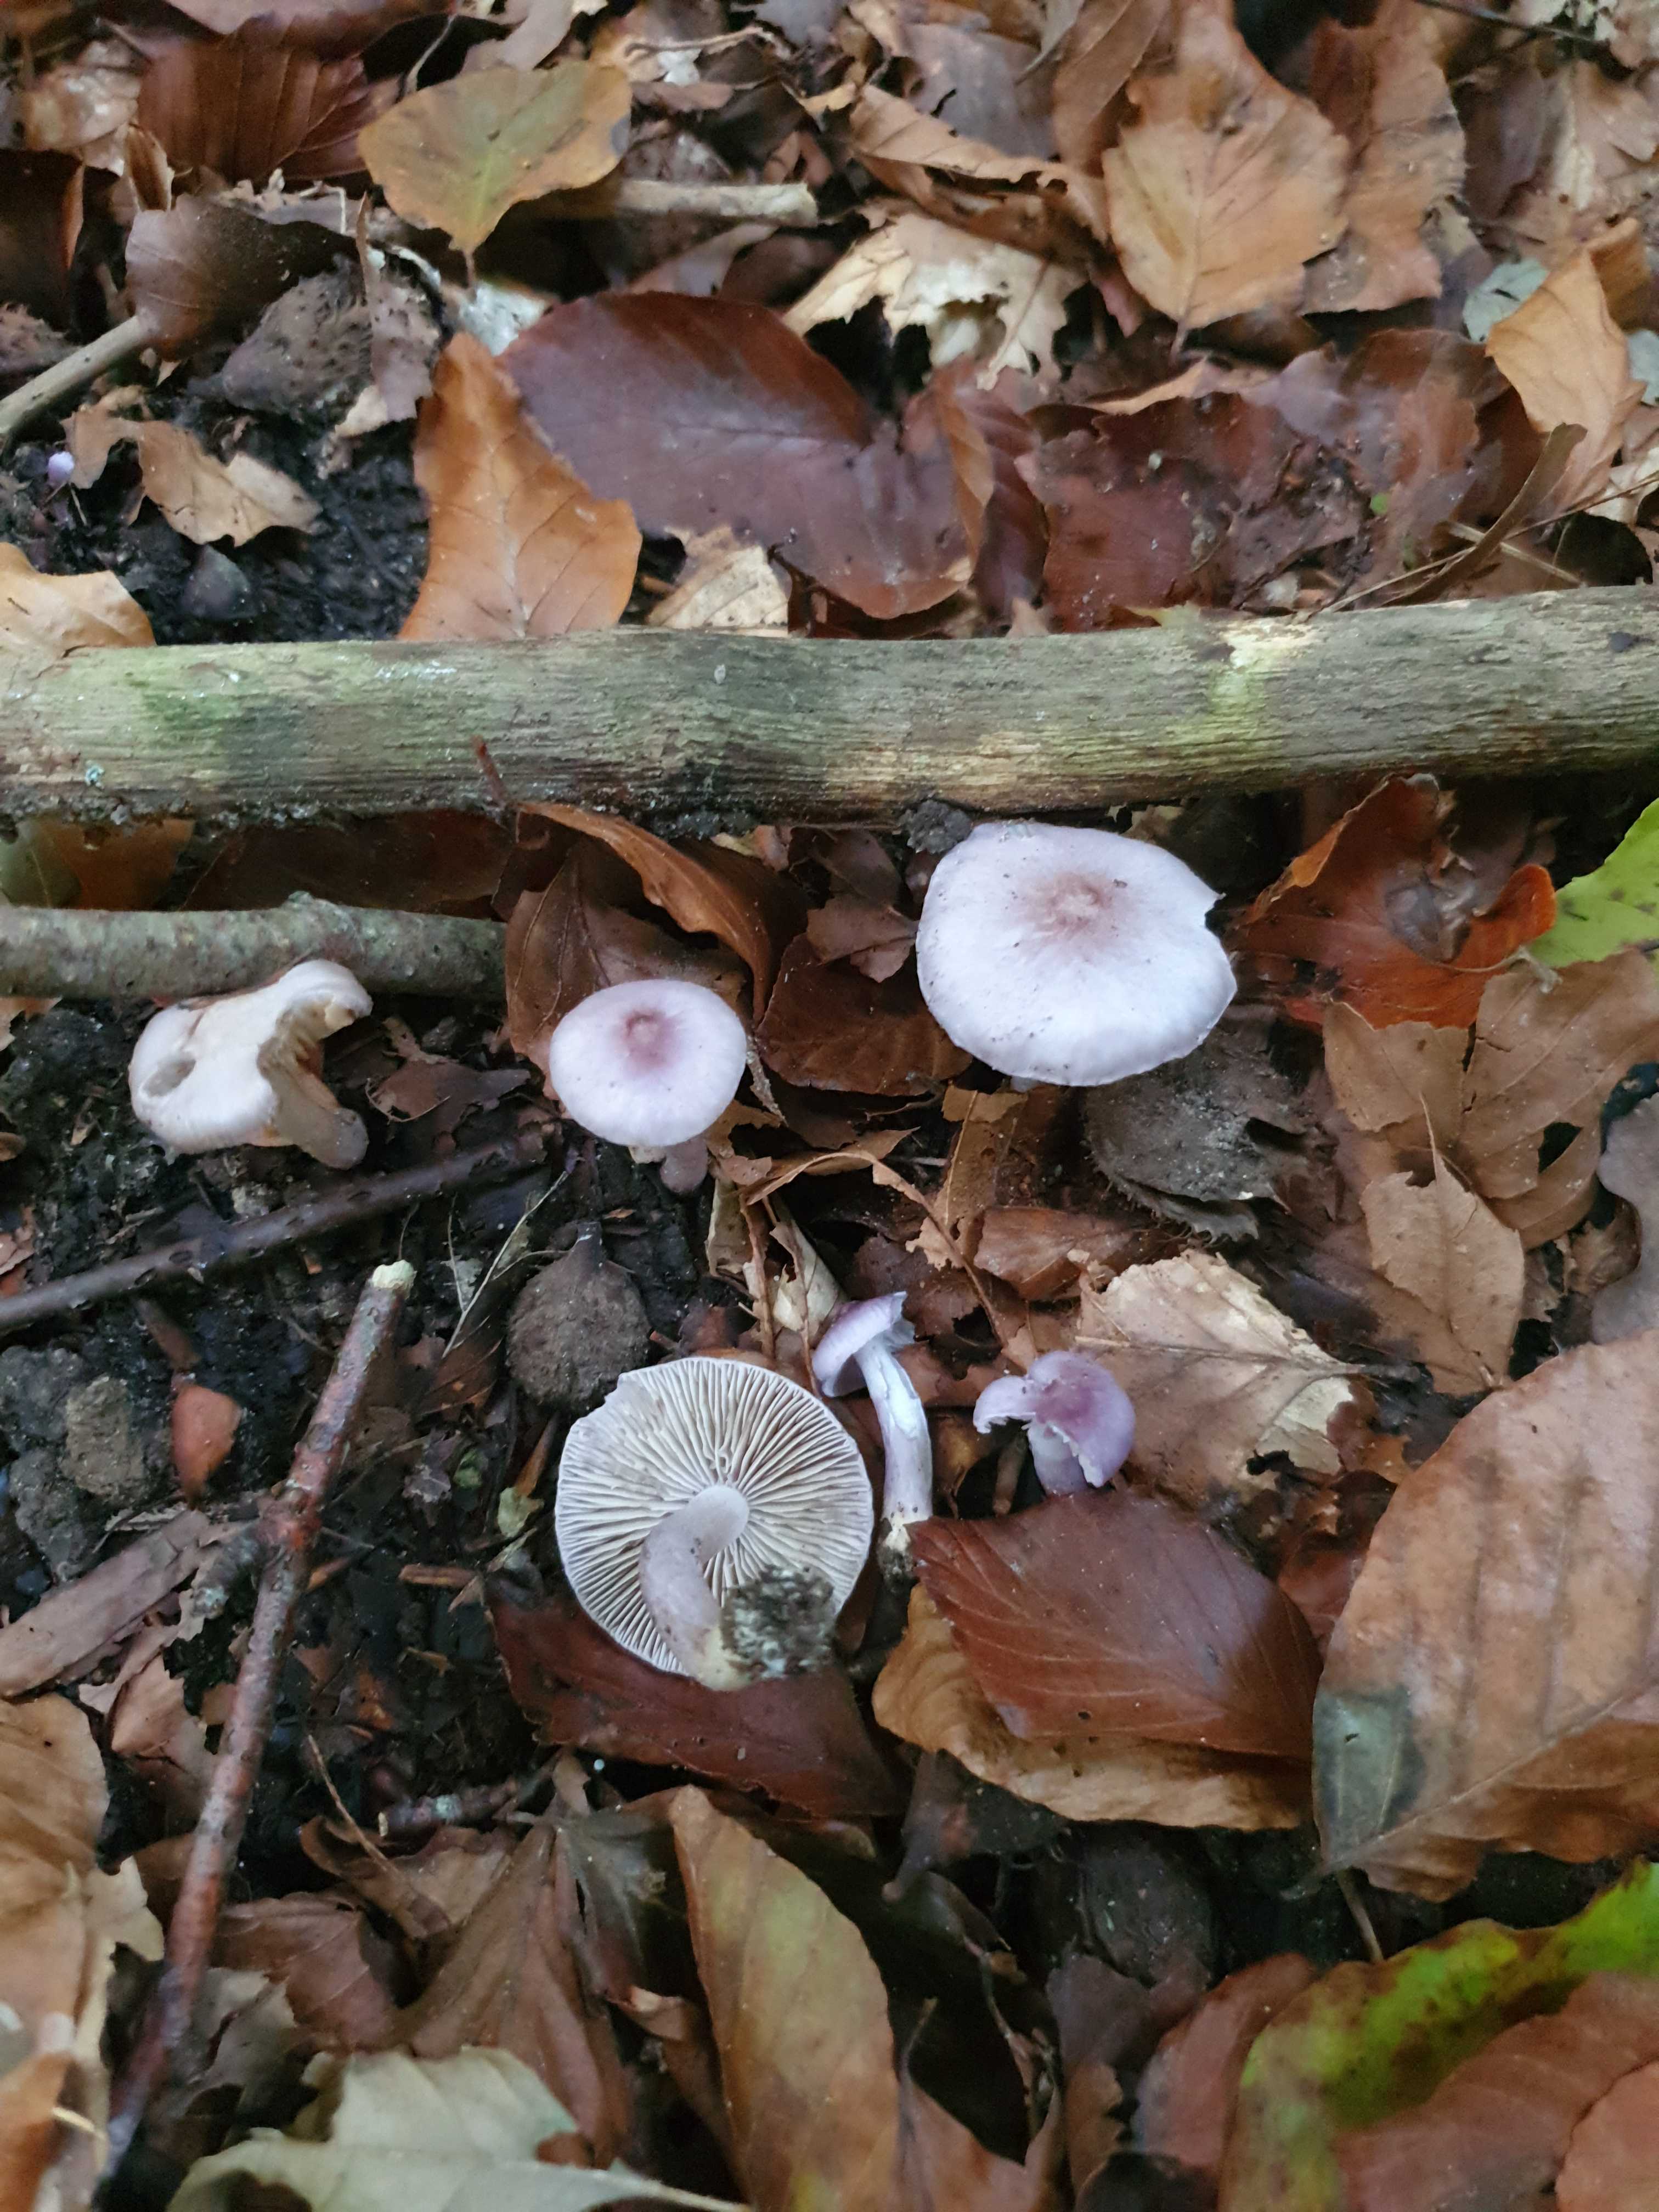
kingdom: Fungi
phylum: Basidiomycota
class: Agaricomycetes
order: Agaricales
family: Inocybaceae
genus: Inocybe
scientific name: Inocybe geophylla
